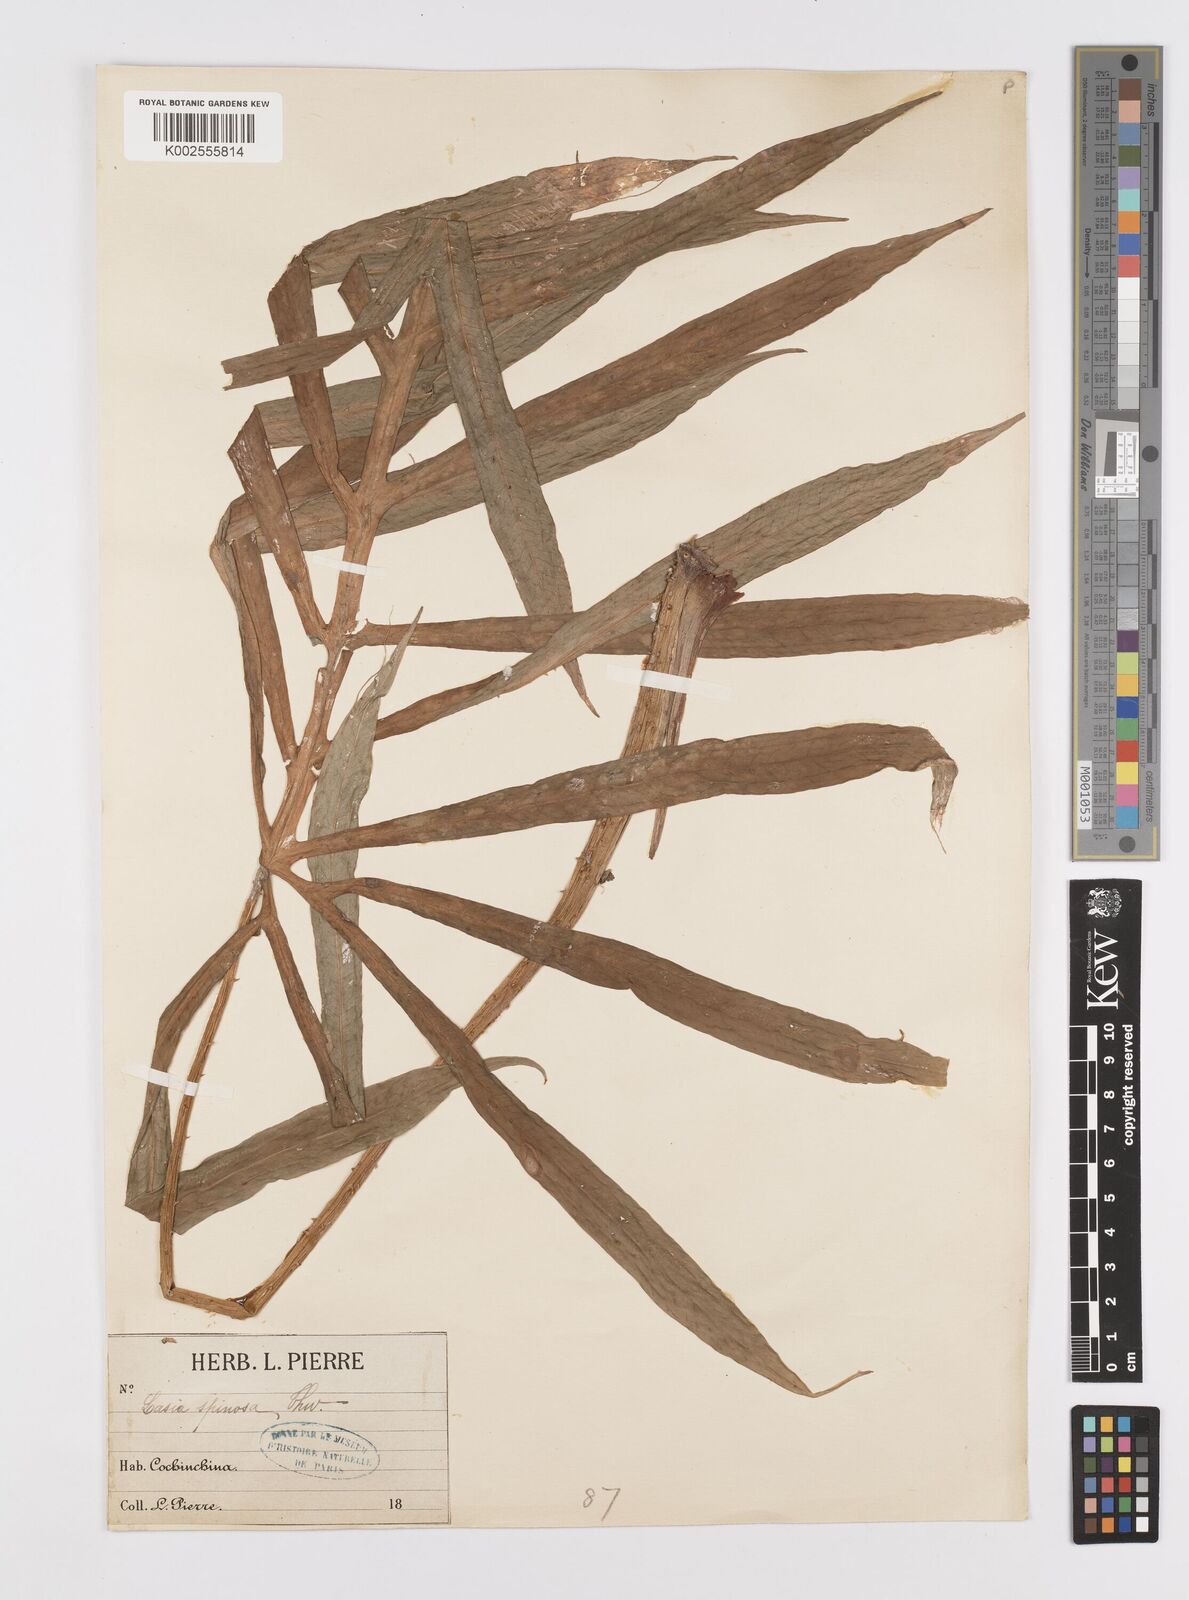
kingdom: Plantae
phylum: Tracheophyta
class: Liliopsida
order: Alismatales
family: Araceae
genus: Lasia
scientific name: Lasia spinosa
